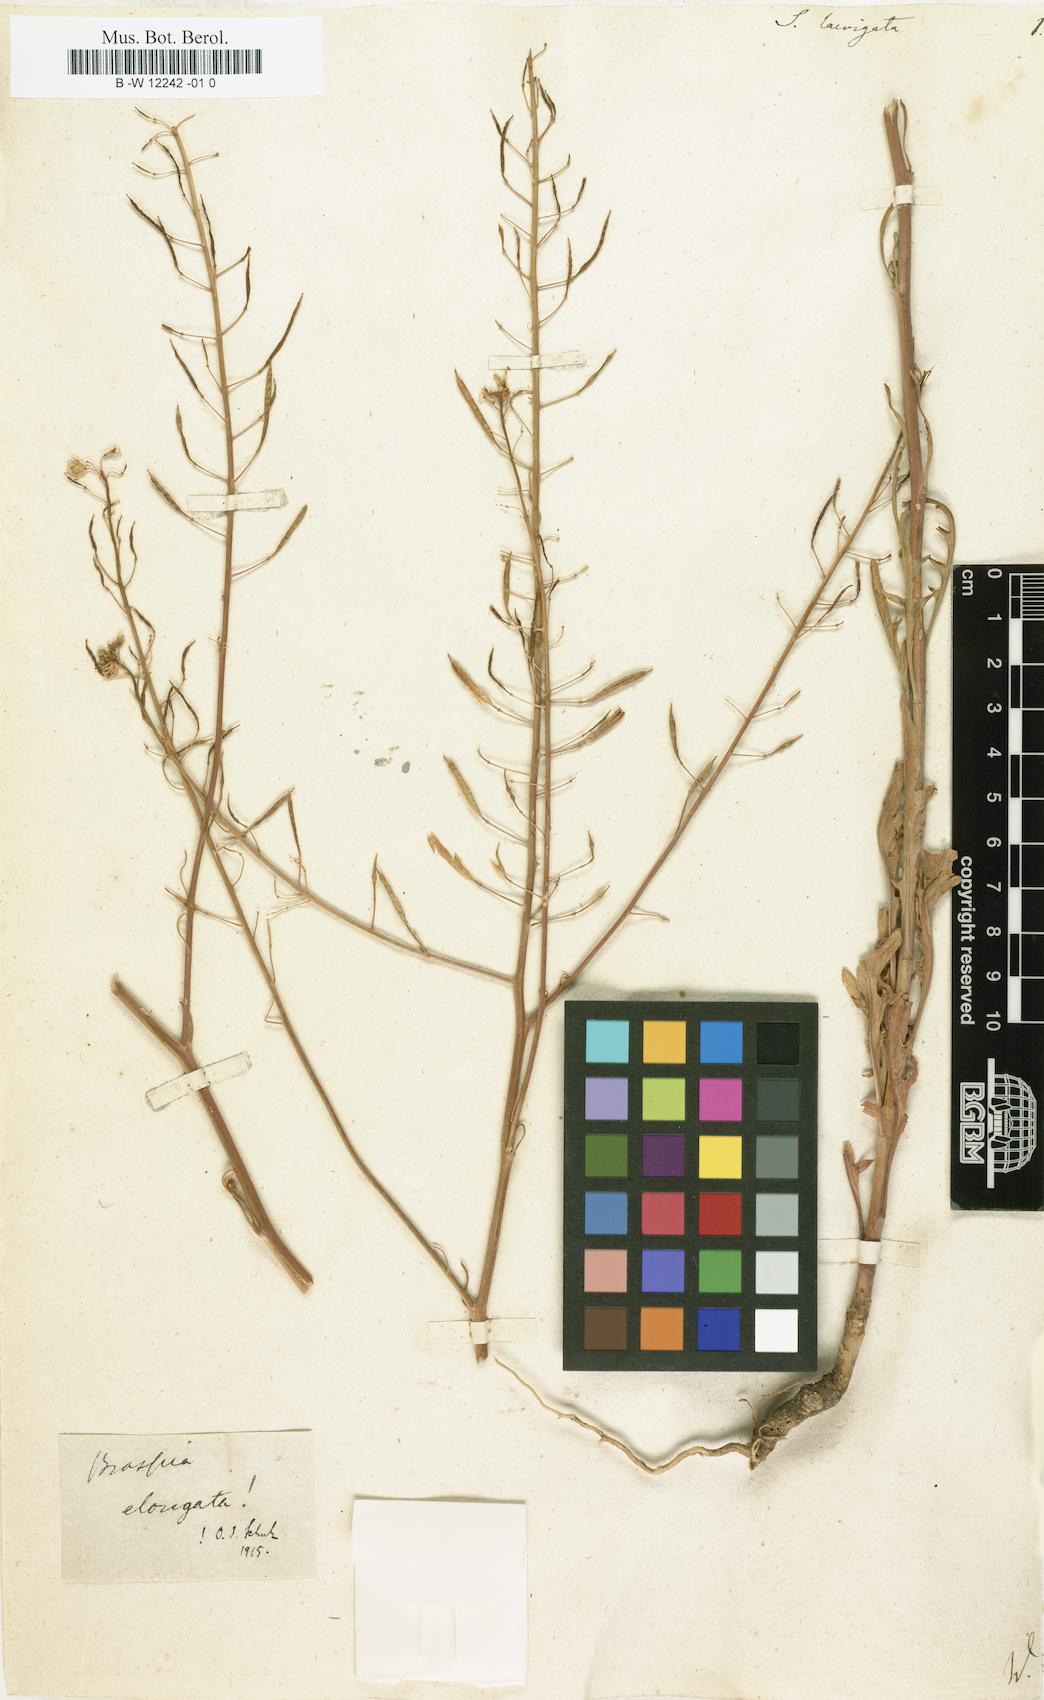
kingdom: Plantae
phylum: Tracheophyta
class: Magnoliopsida
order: Brassicales
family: Brassicaceae
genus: Erucastrum
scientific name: Erucastrum virgatum
